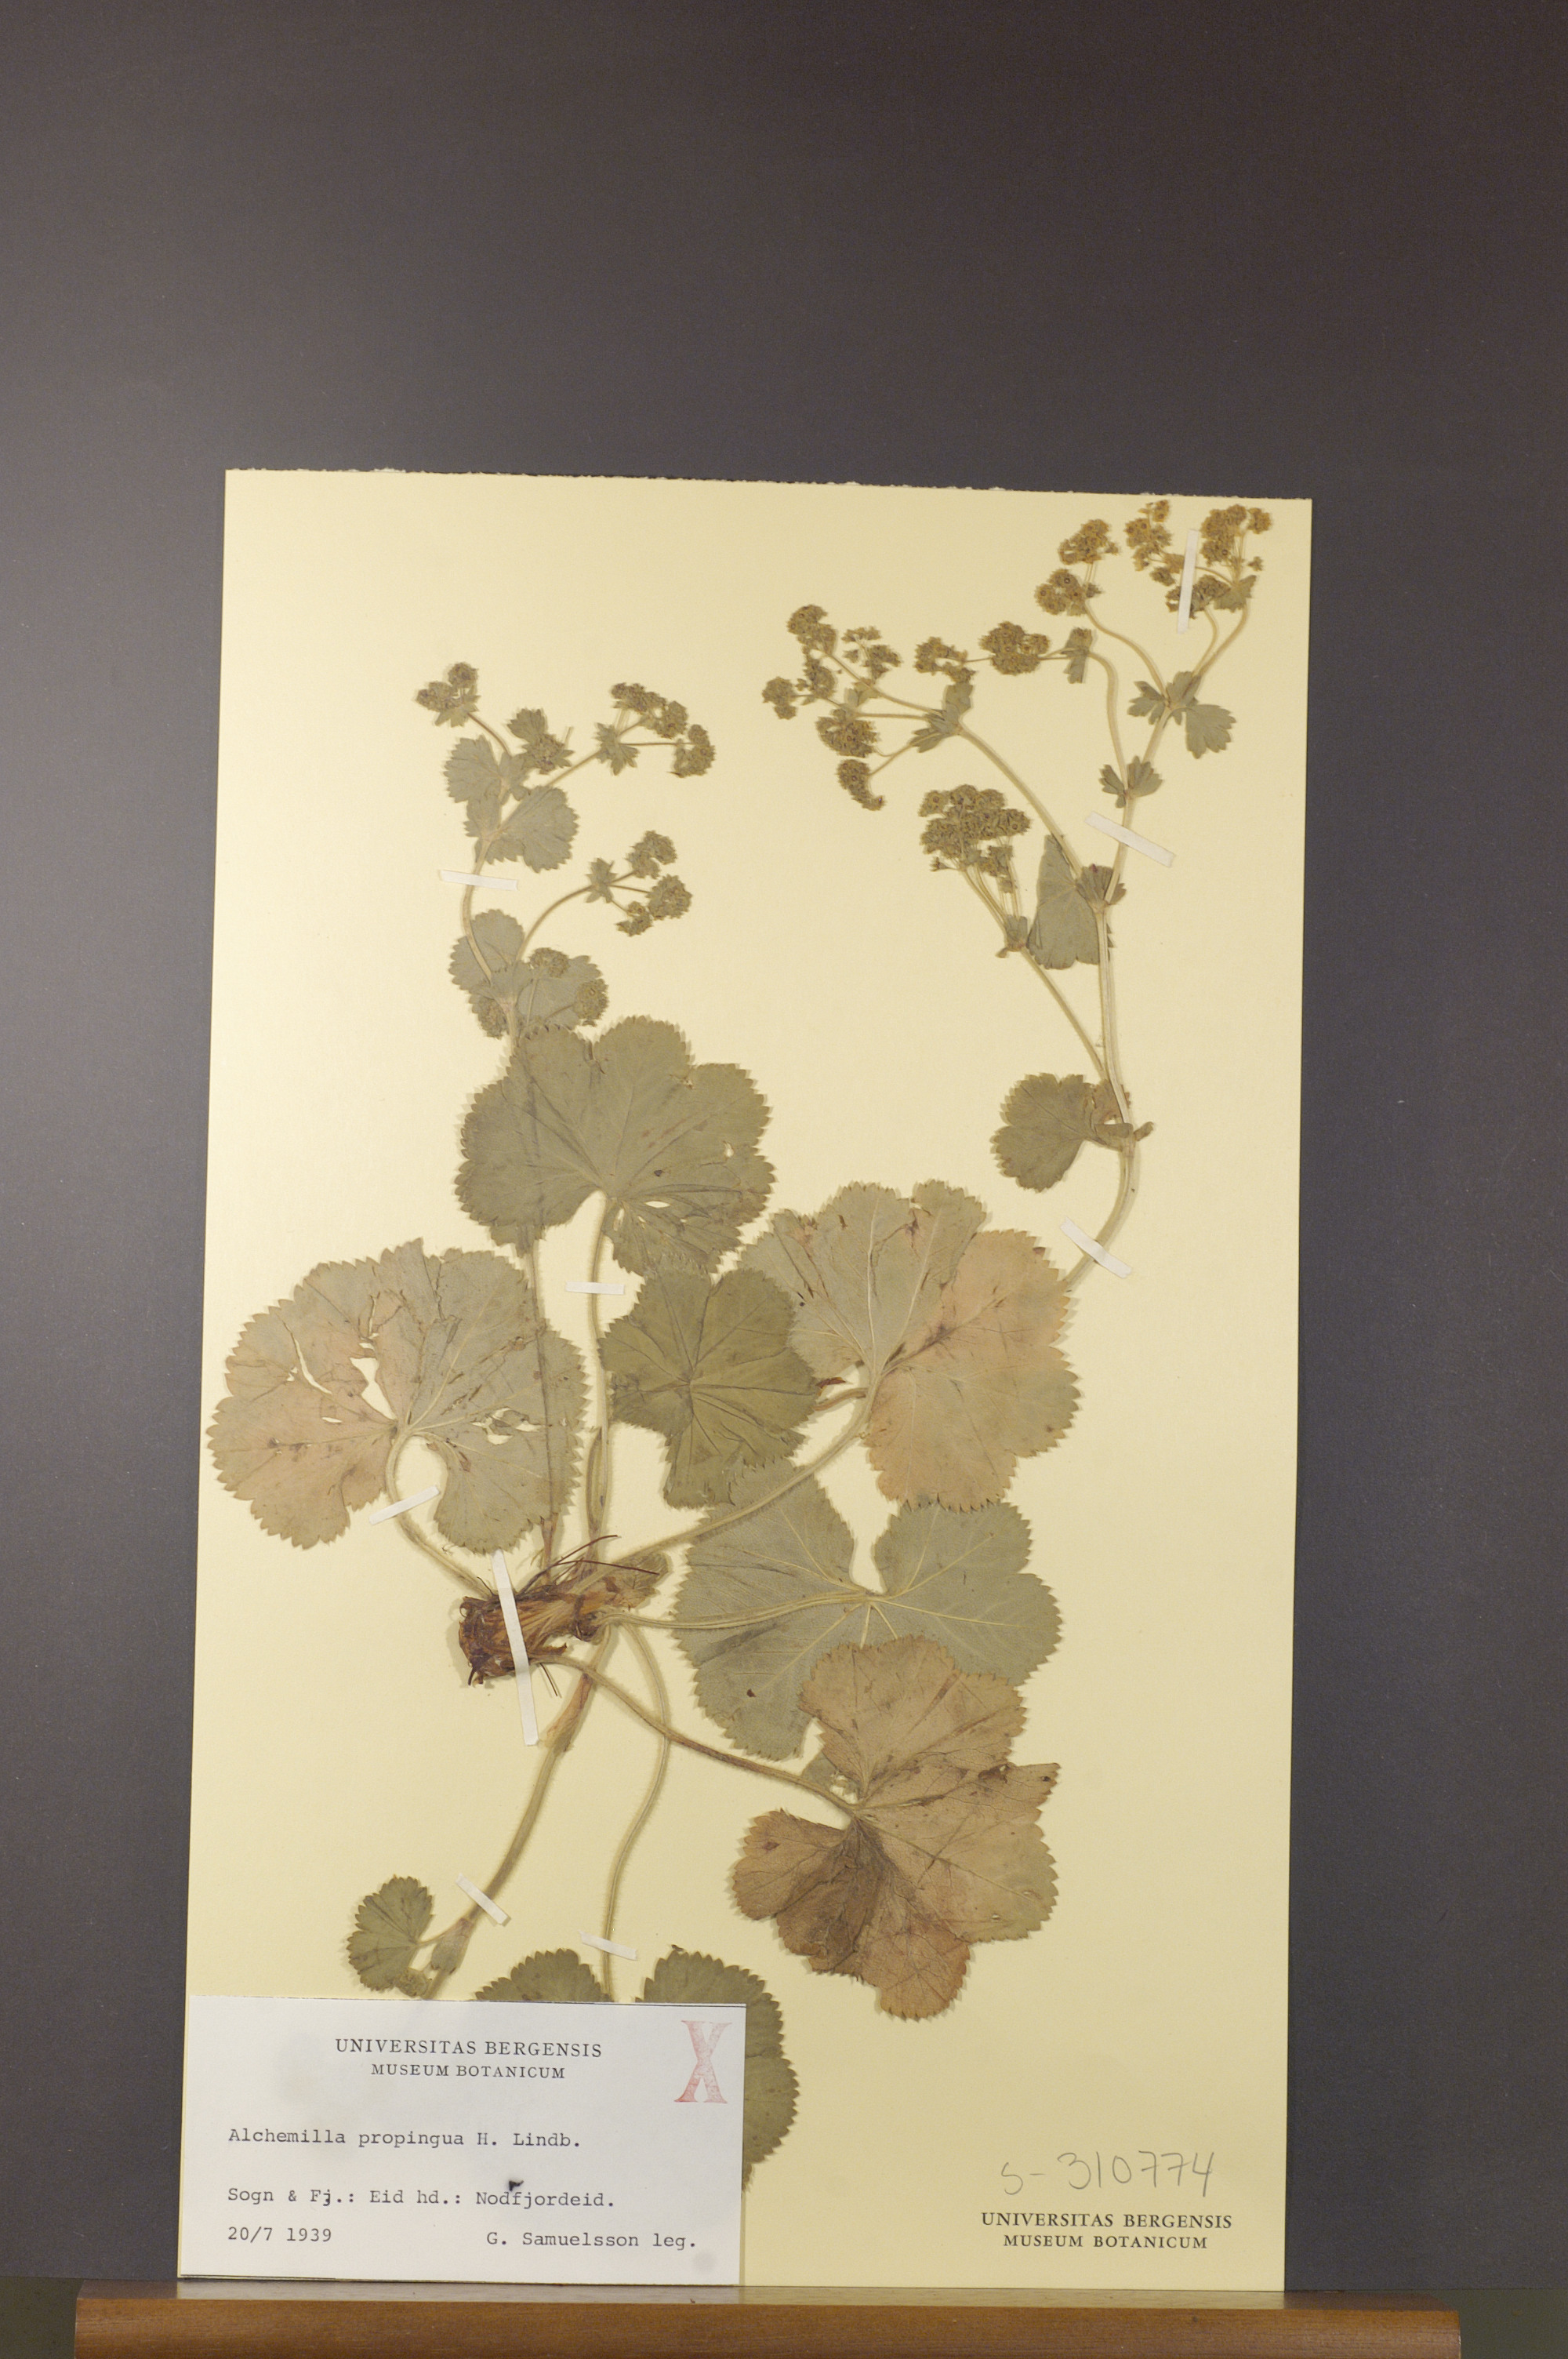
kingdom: Plantae
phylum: Tracheophyta
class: Magnoliopsida
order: Rosales
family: Rosaceae
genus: Alchemilla
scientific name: Alchemilla propinqua
